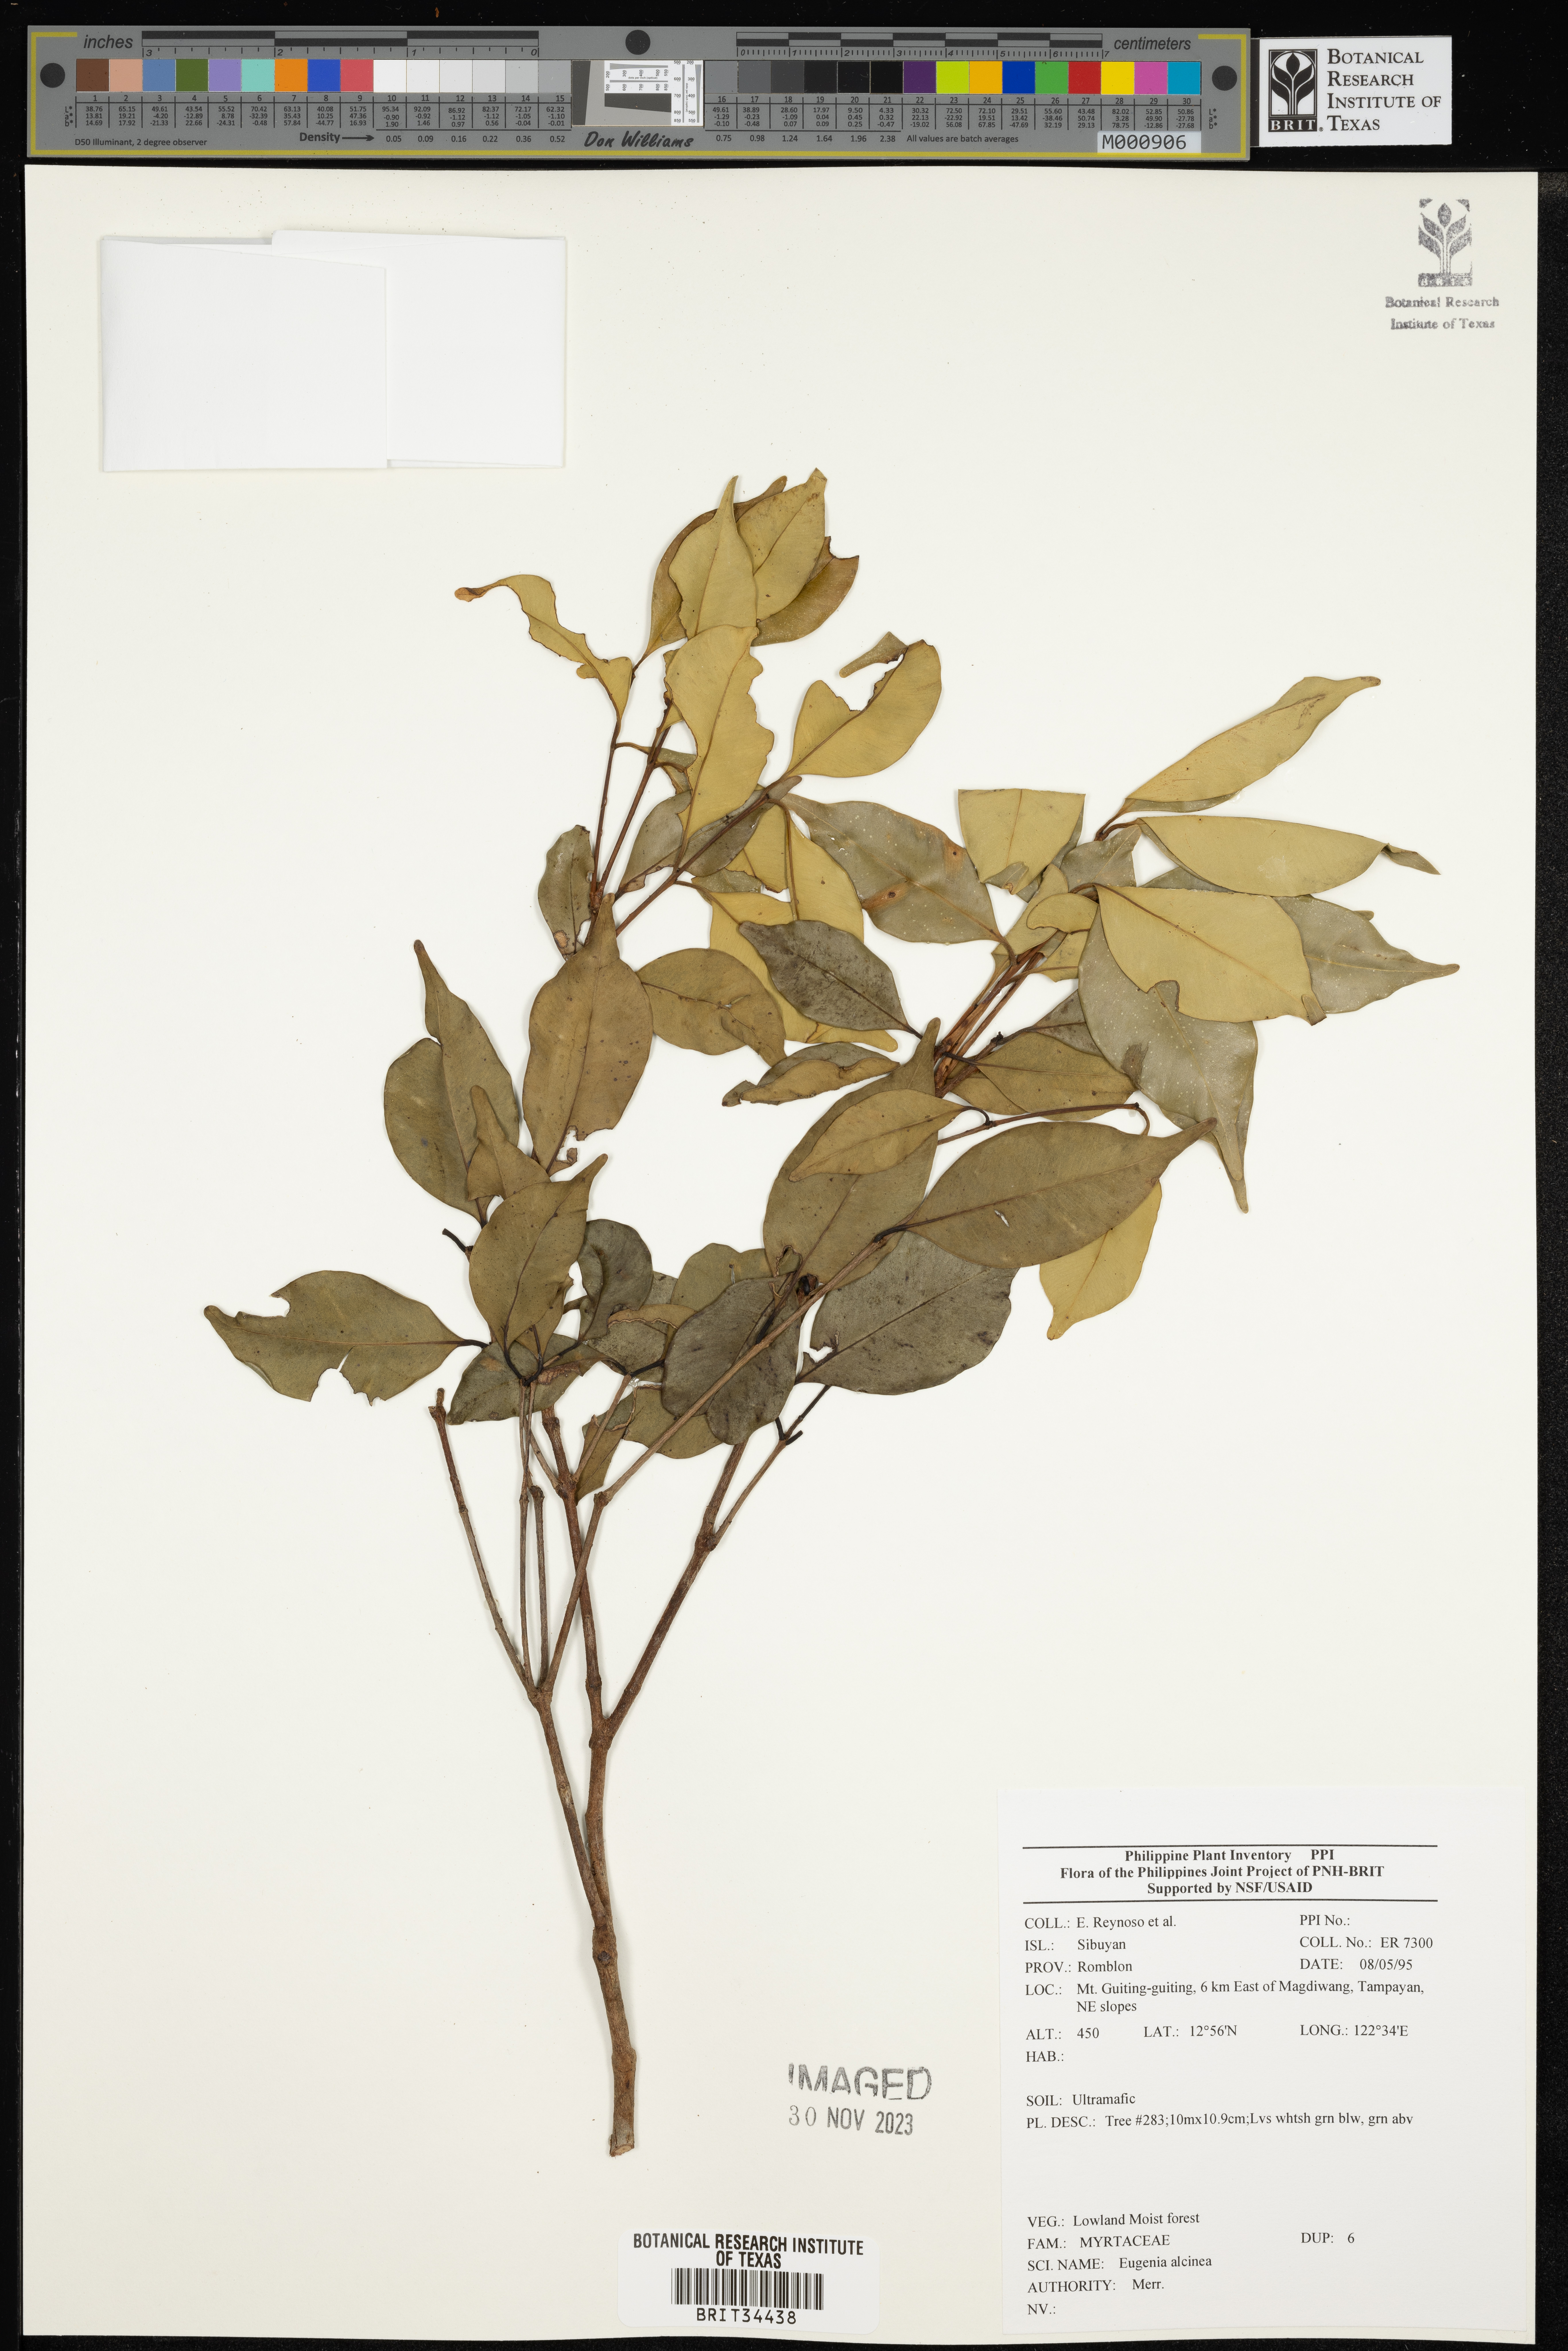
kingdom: Plantae
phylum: Tracheophyta
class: Magnoliopsida
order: Myrtales
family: Myrtaceae
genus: Eugenia
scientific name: Eugenia
